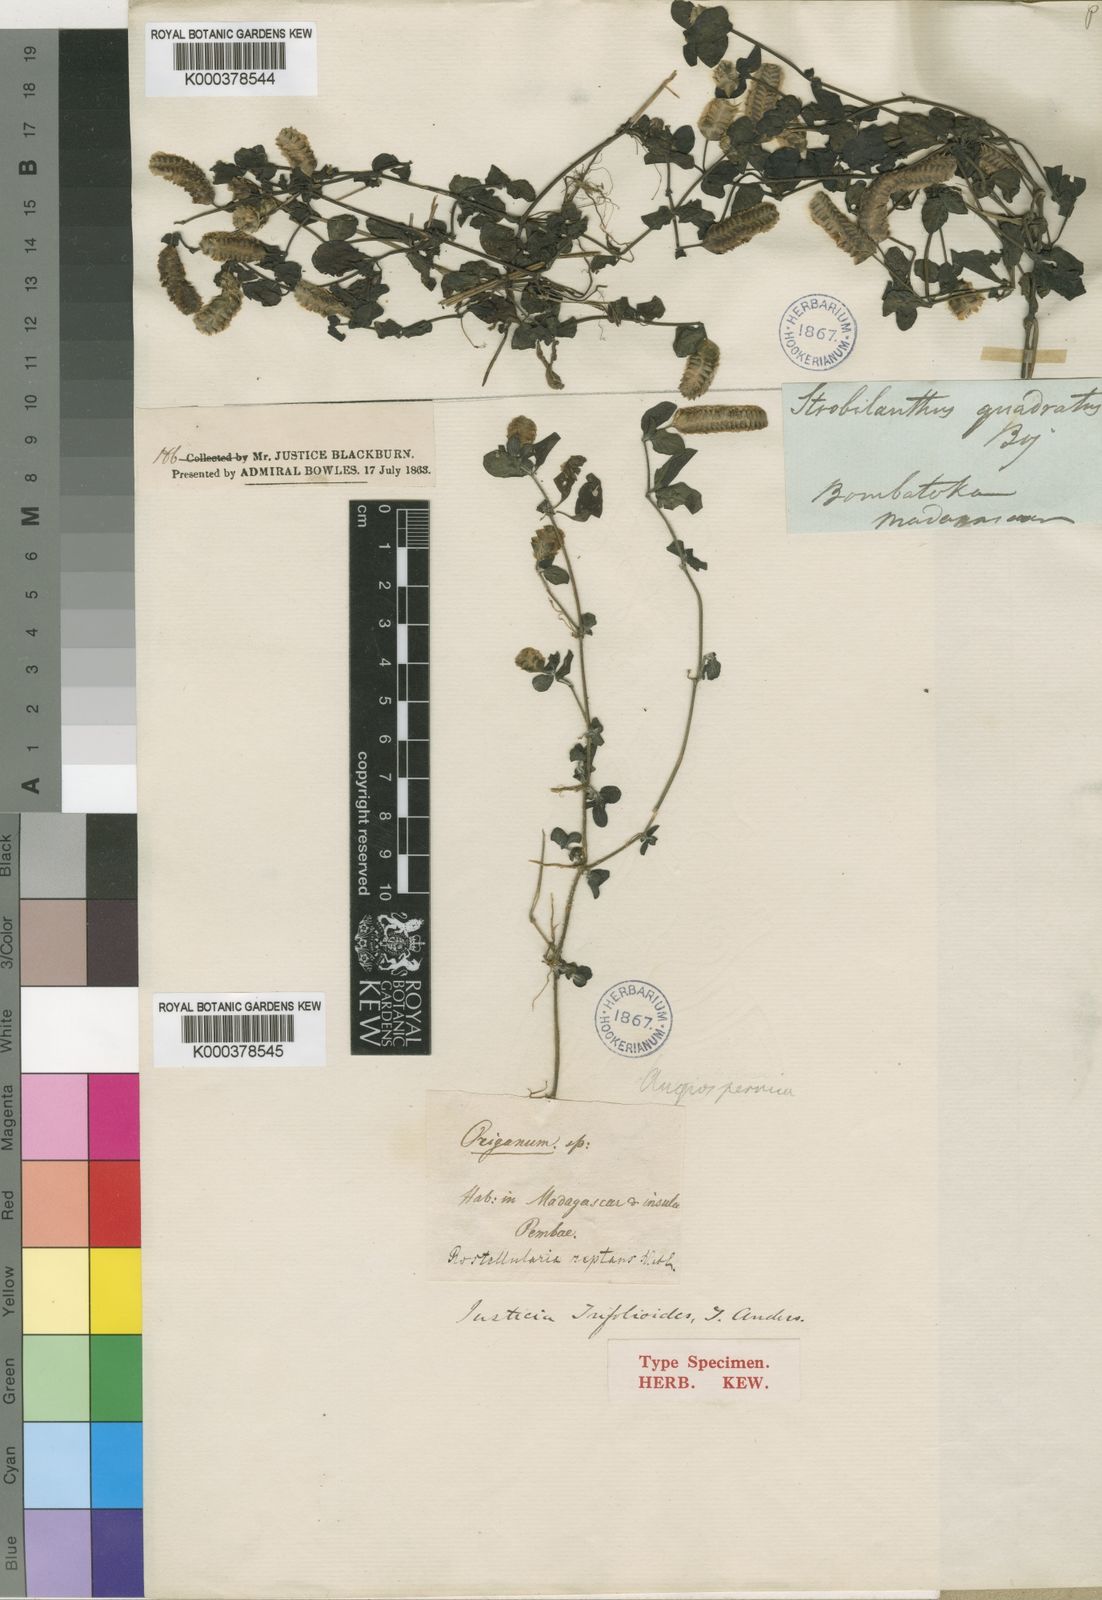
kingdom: Plantae
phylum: Tracheophyta
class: Magnoliopsida
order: Lamiales
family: Acanthaceae
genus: Anisostachya
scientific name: Anisostachya reptans
